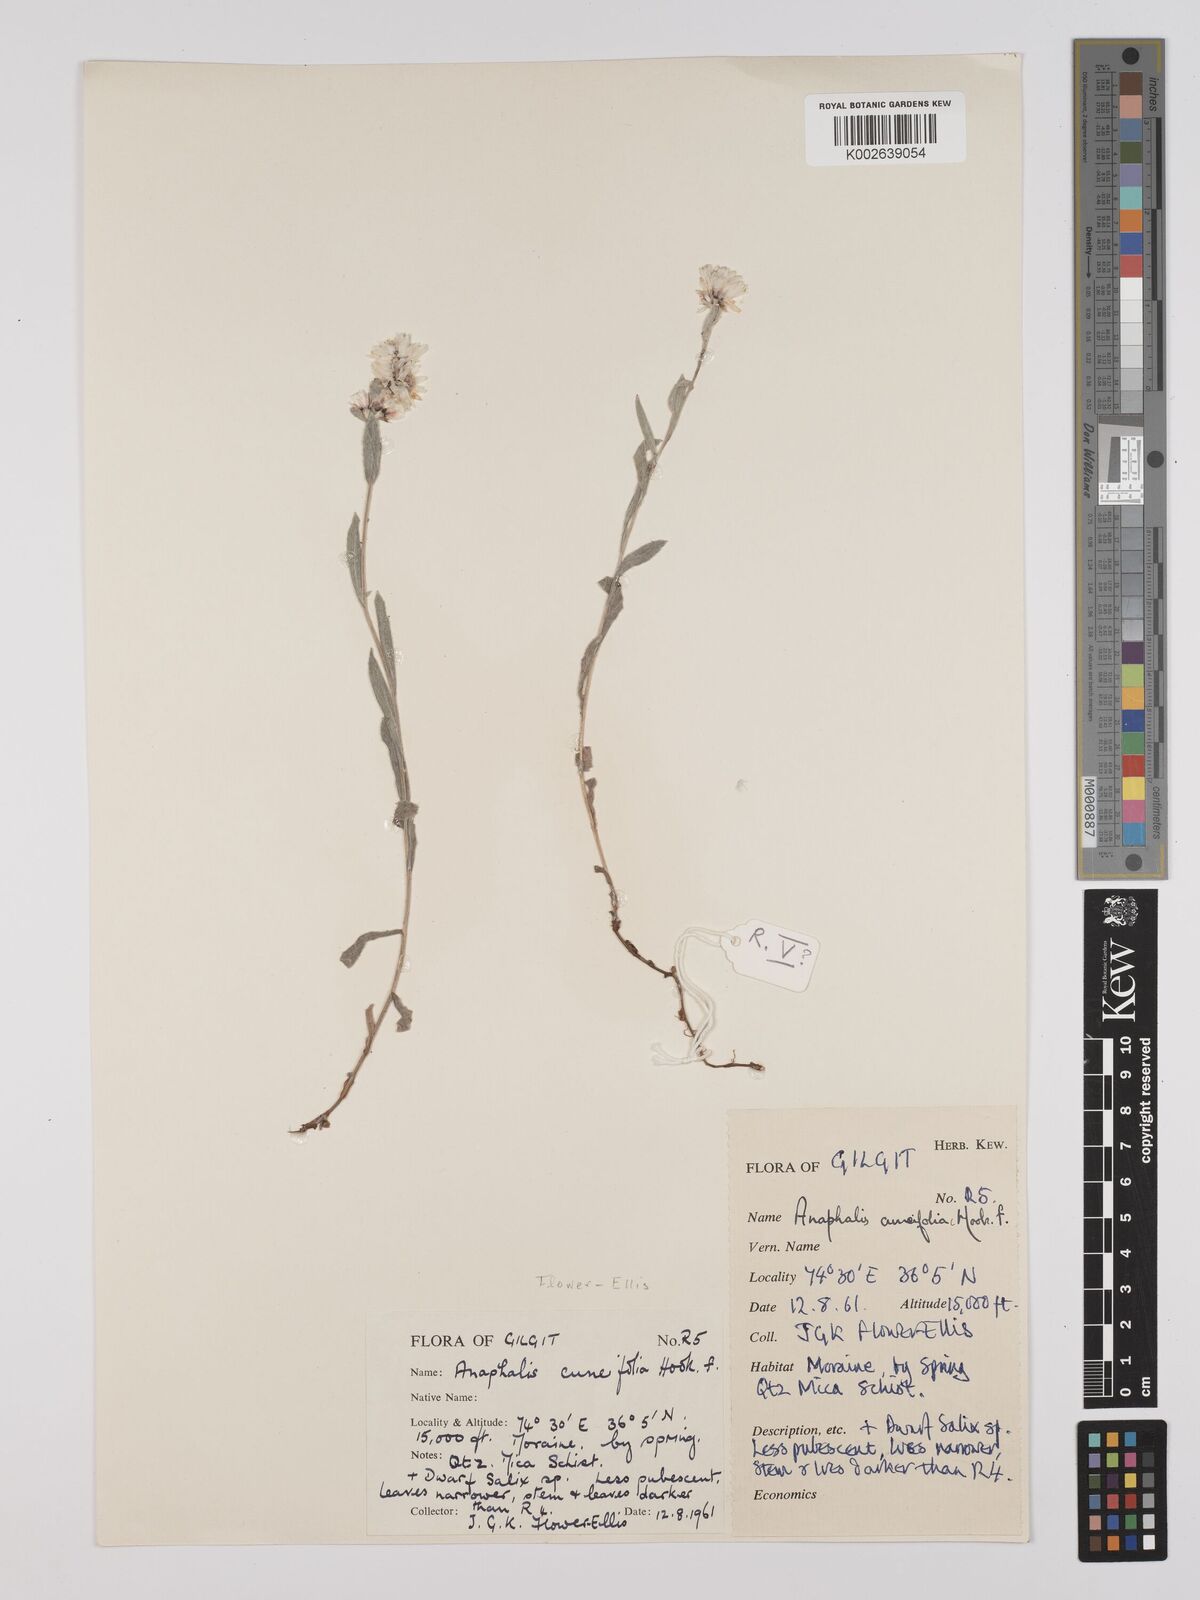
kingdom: Plantae
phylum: Tracheophyta
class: Magnoliopsida
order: Asterales
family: Asteraceae
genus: Anaphalis
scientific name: Anaphalis nepalensis
